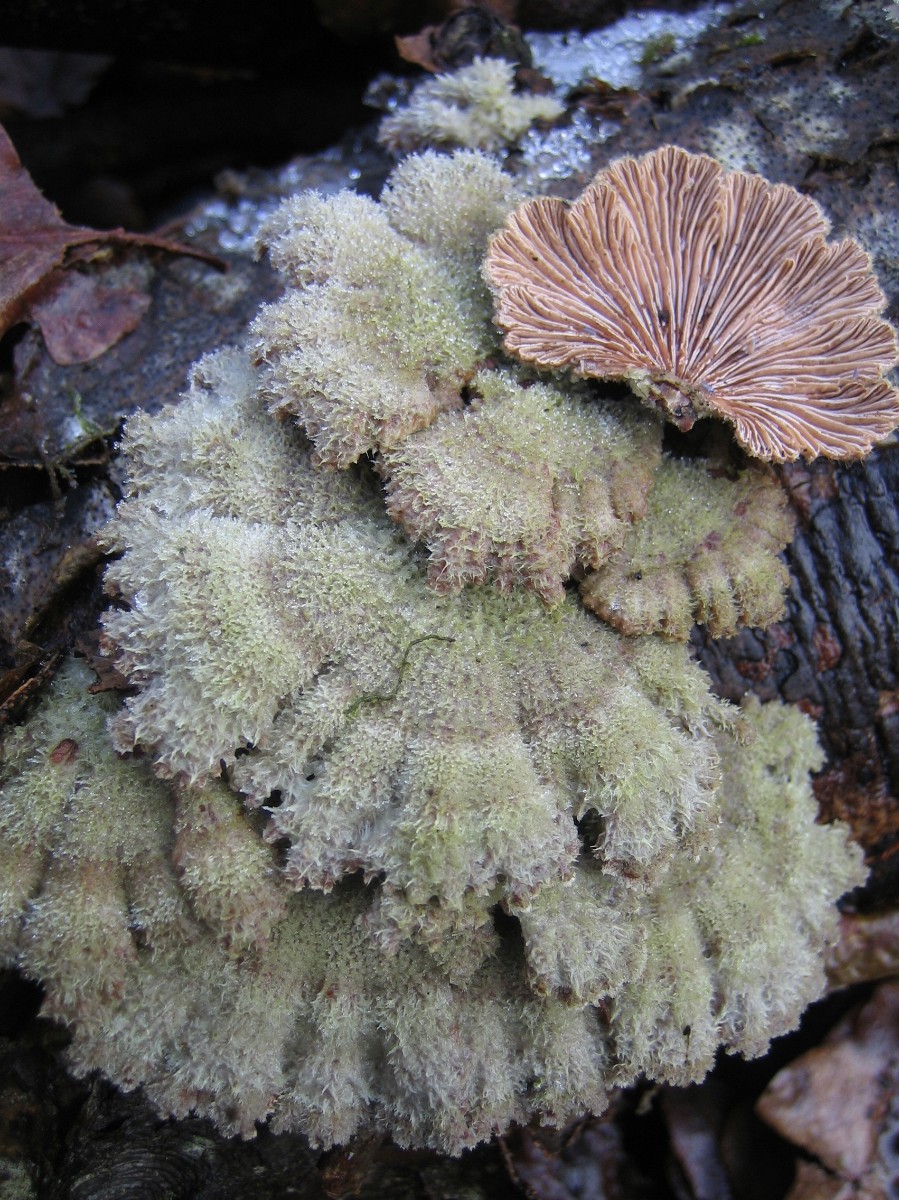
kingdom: Fungi
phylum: Basidiomycota
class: Agaricomycetes
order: Agaricales
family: Schizophyllaceae
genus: Schizophyllum
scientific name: Schizophyllum commune
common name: kløvblad
